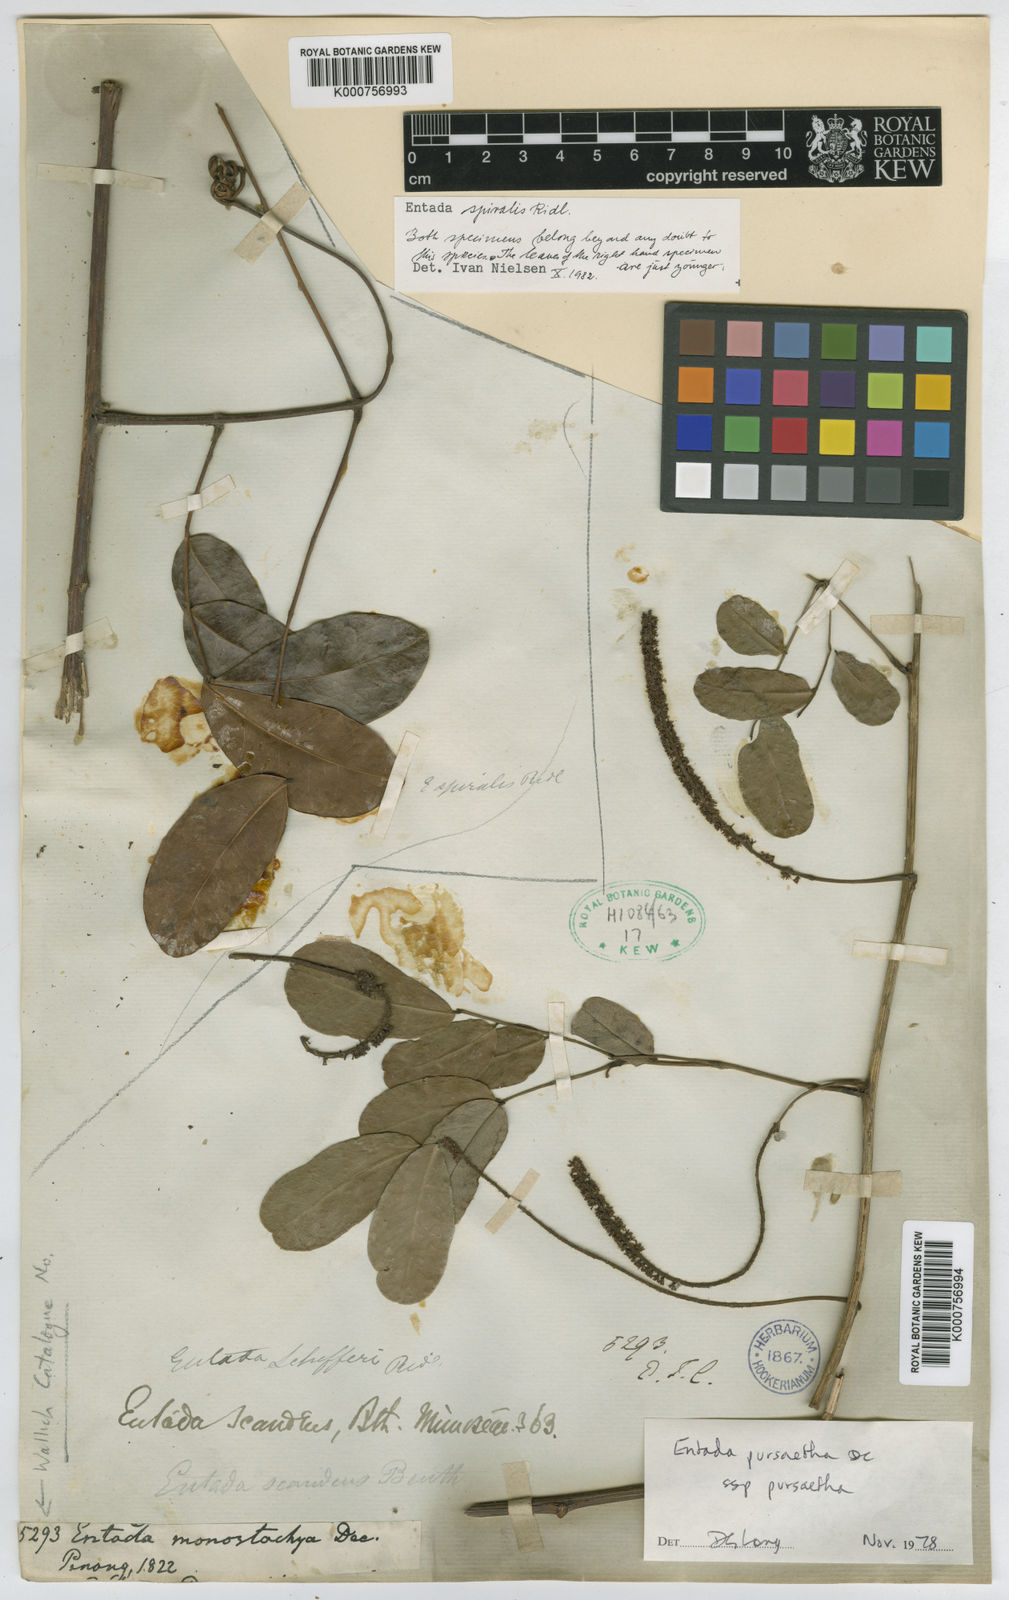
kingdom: Plantae
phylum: Tracheophyta
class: Magnoliopsida
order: Fabales
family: Fabaceae
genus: Entada
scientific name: Entada spiralis
